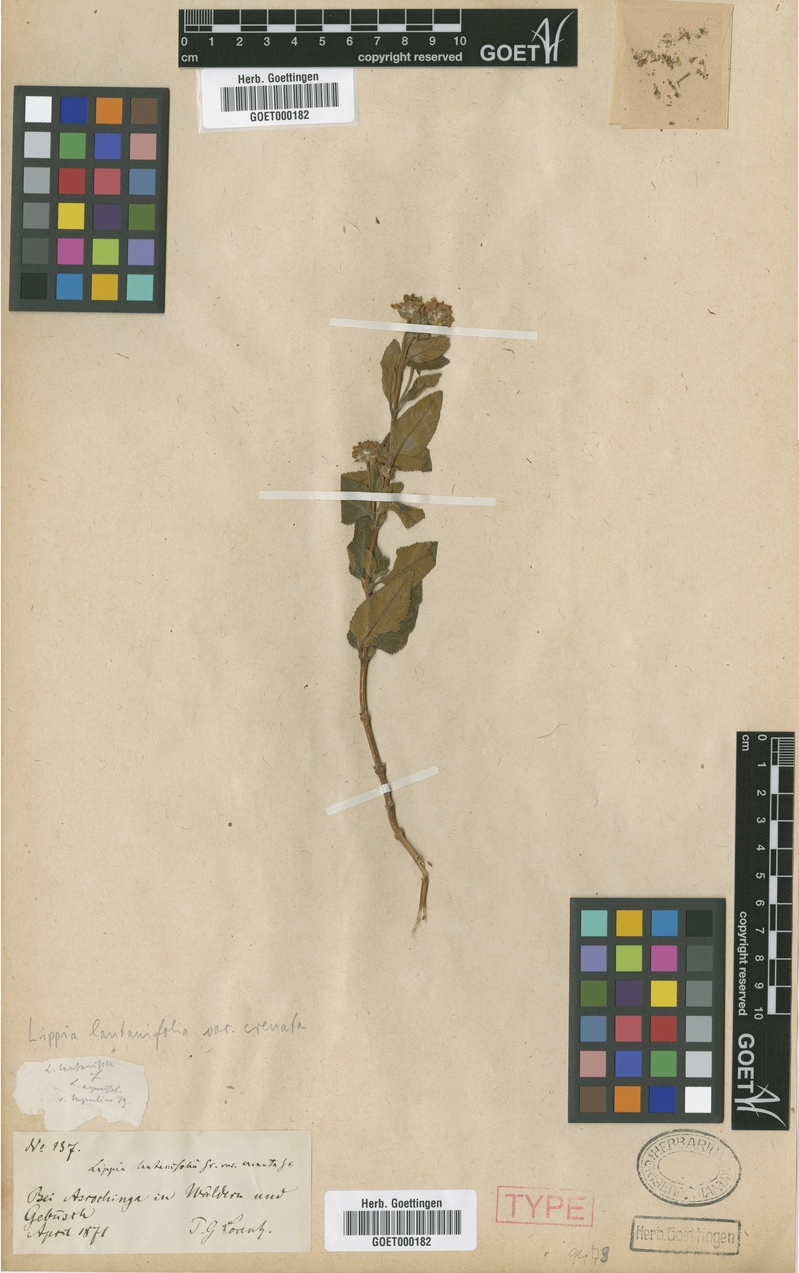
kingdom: Plantae
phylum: Tracheophyta
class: Magnoliopsida
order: Lamiales
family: Verbenaceae
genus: Lippia
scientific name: Lippia junelliana
